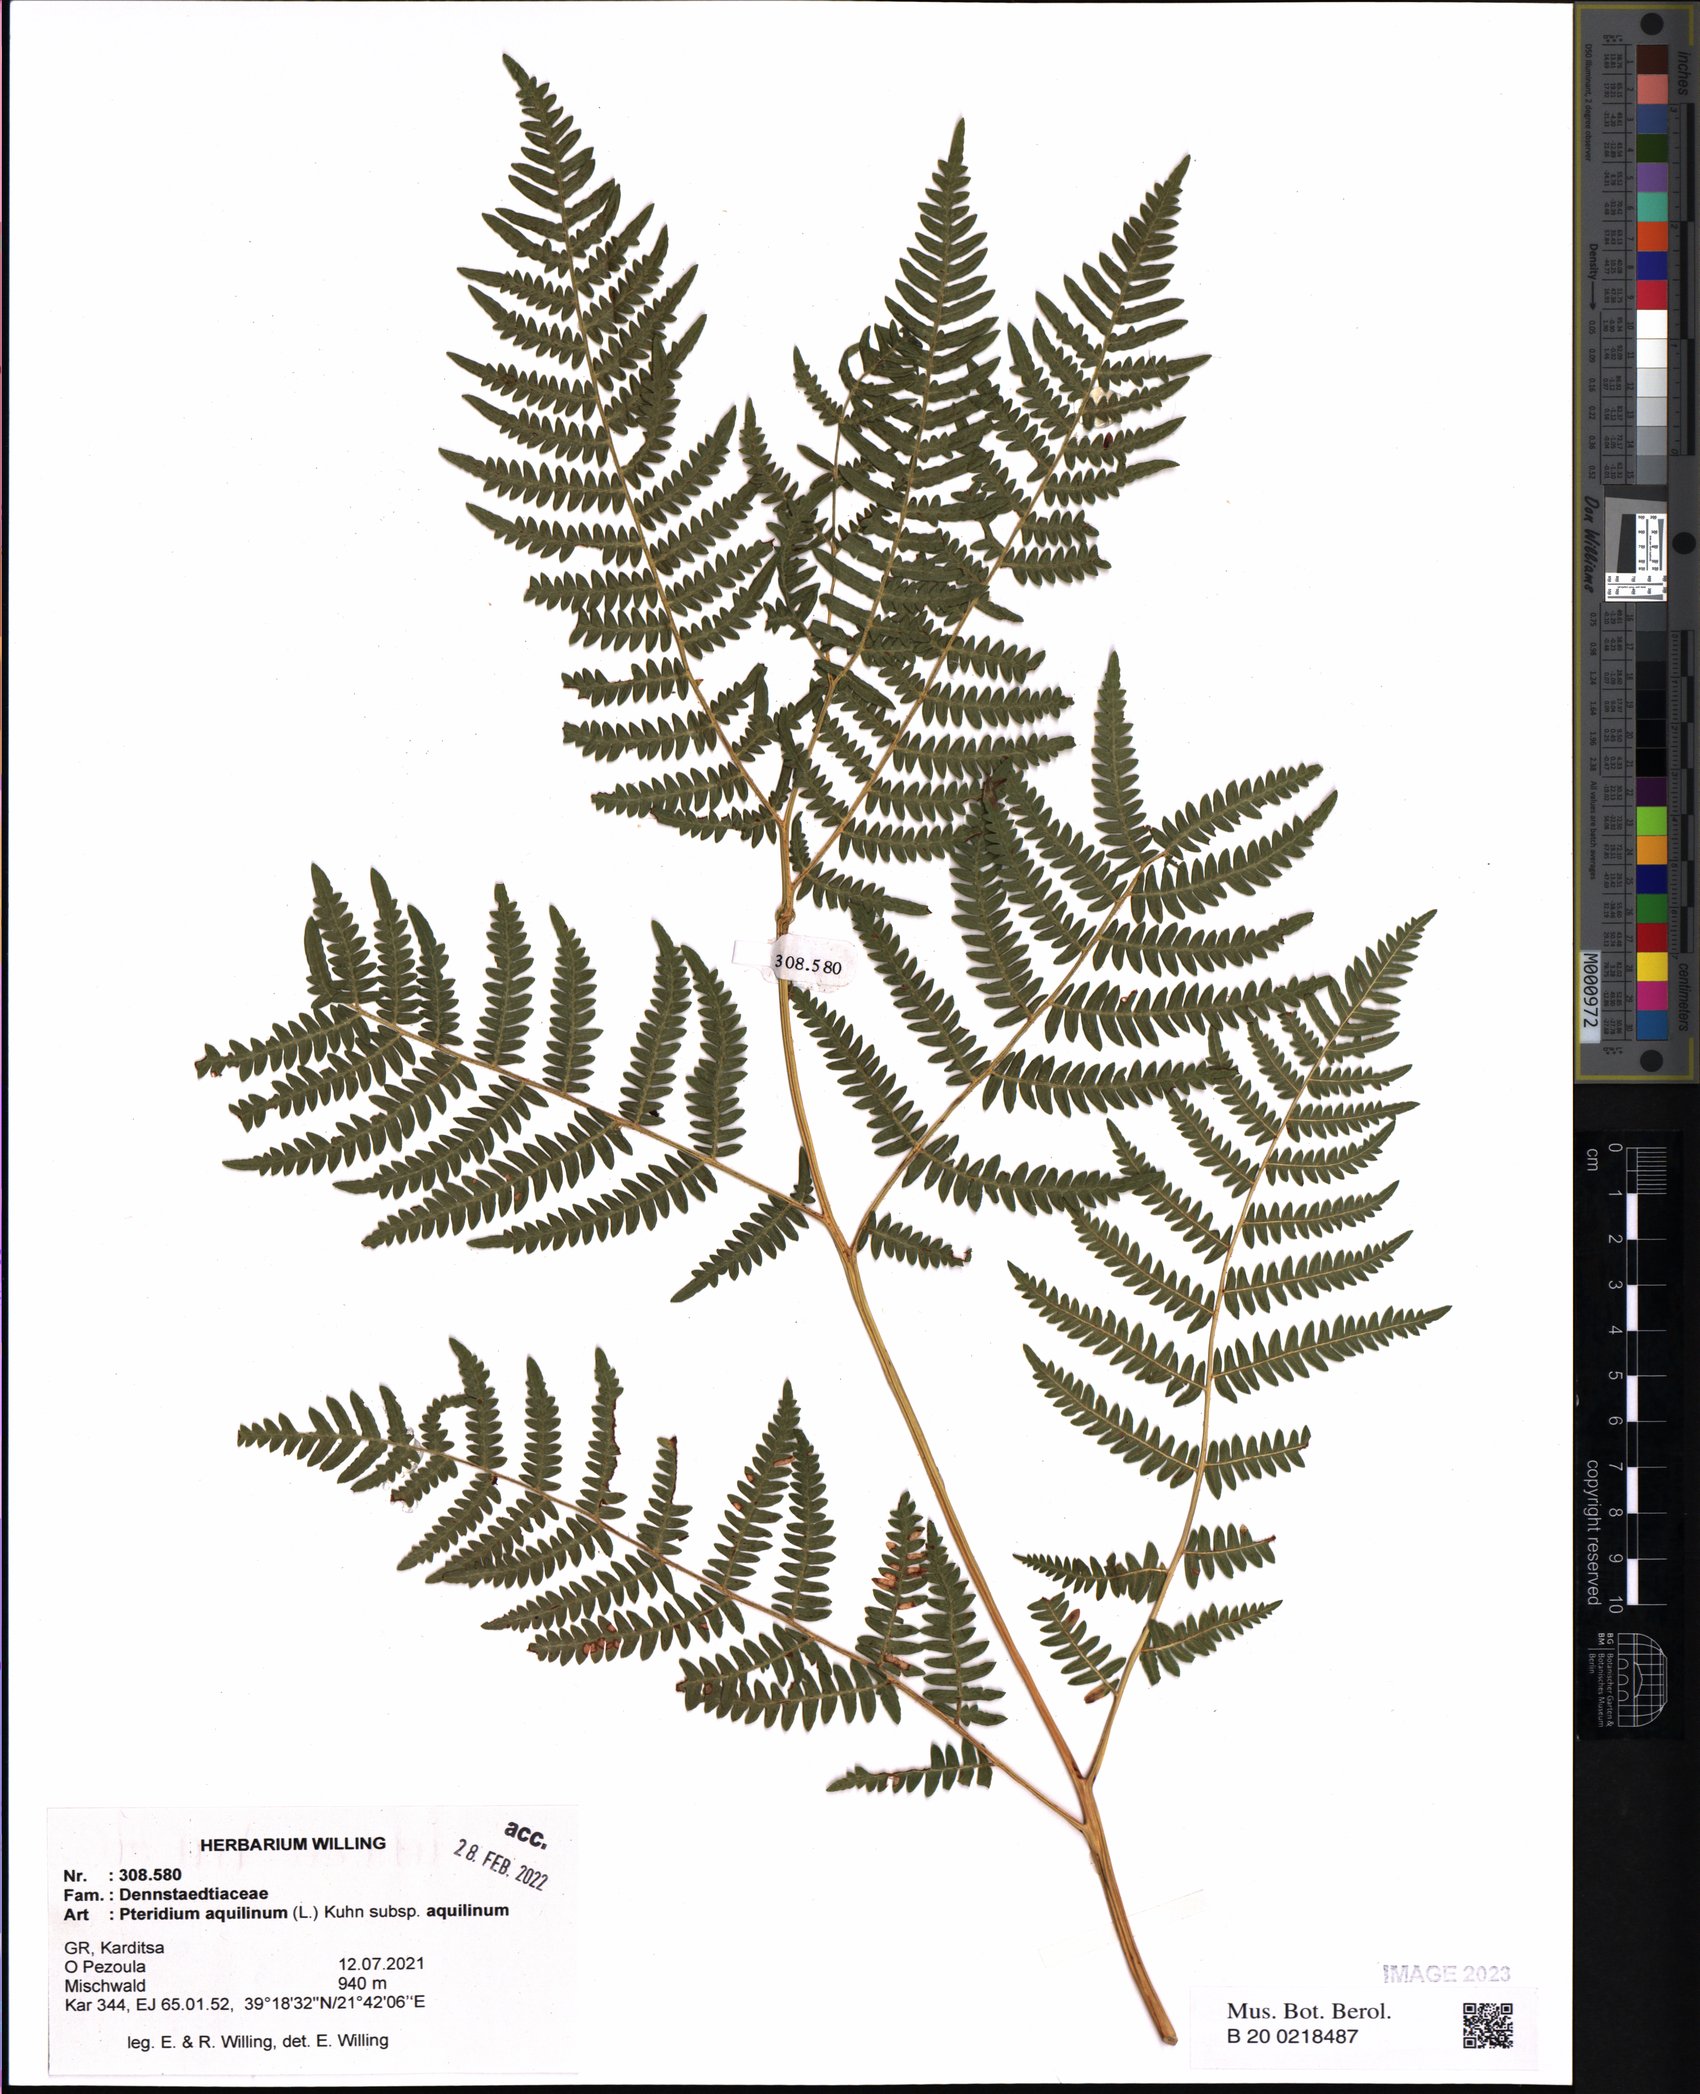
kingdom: Plantae
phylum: Tracheophyta
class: Polypodiopsida
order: Polypodiales
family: Dennstaedtiaceae
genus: Pteridium
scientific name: Pteridium aquilinum
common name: Bracken
